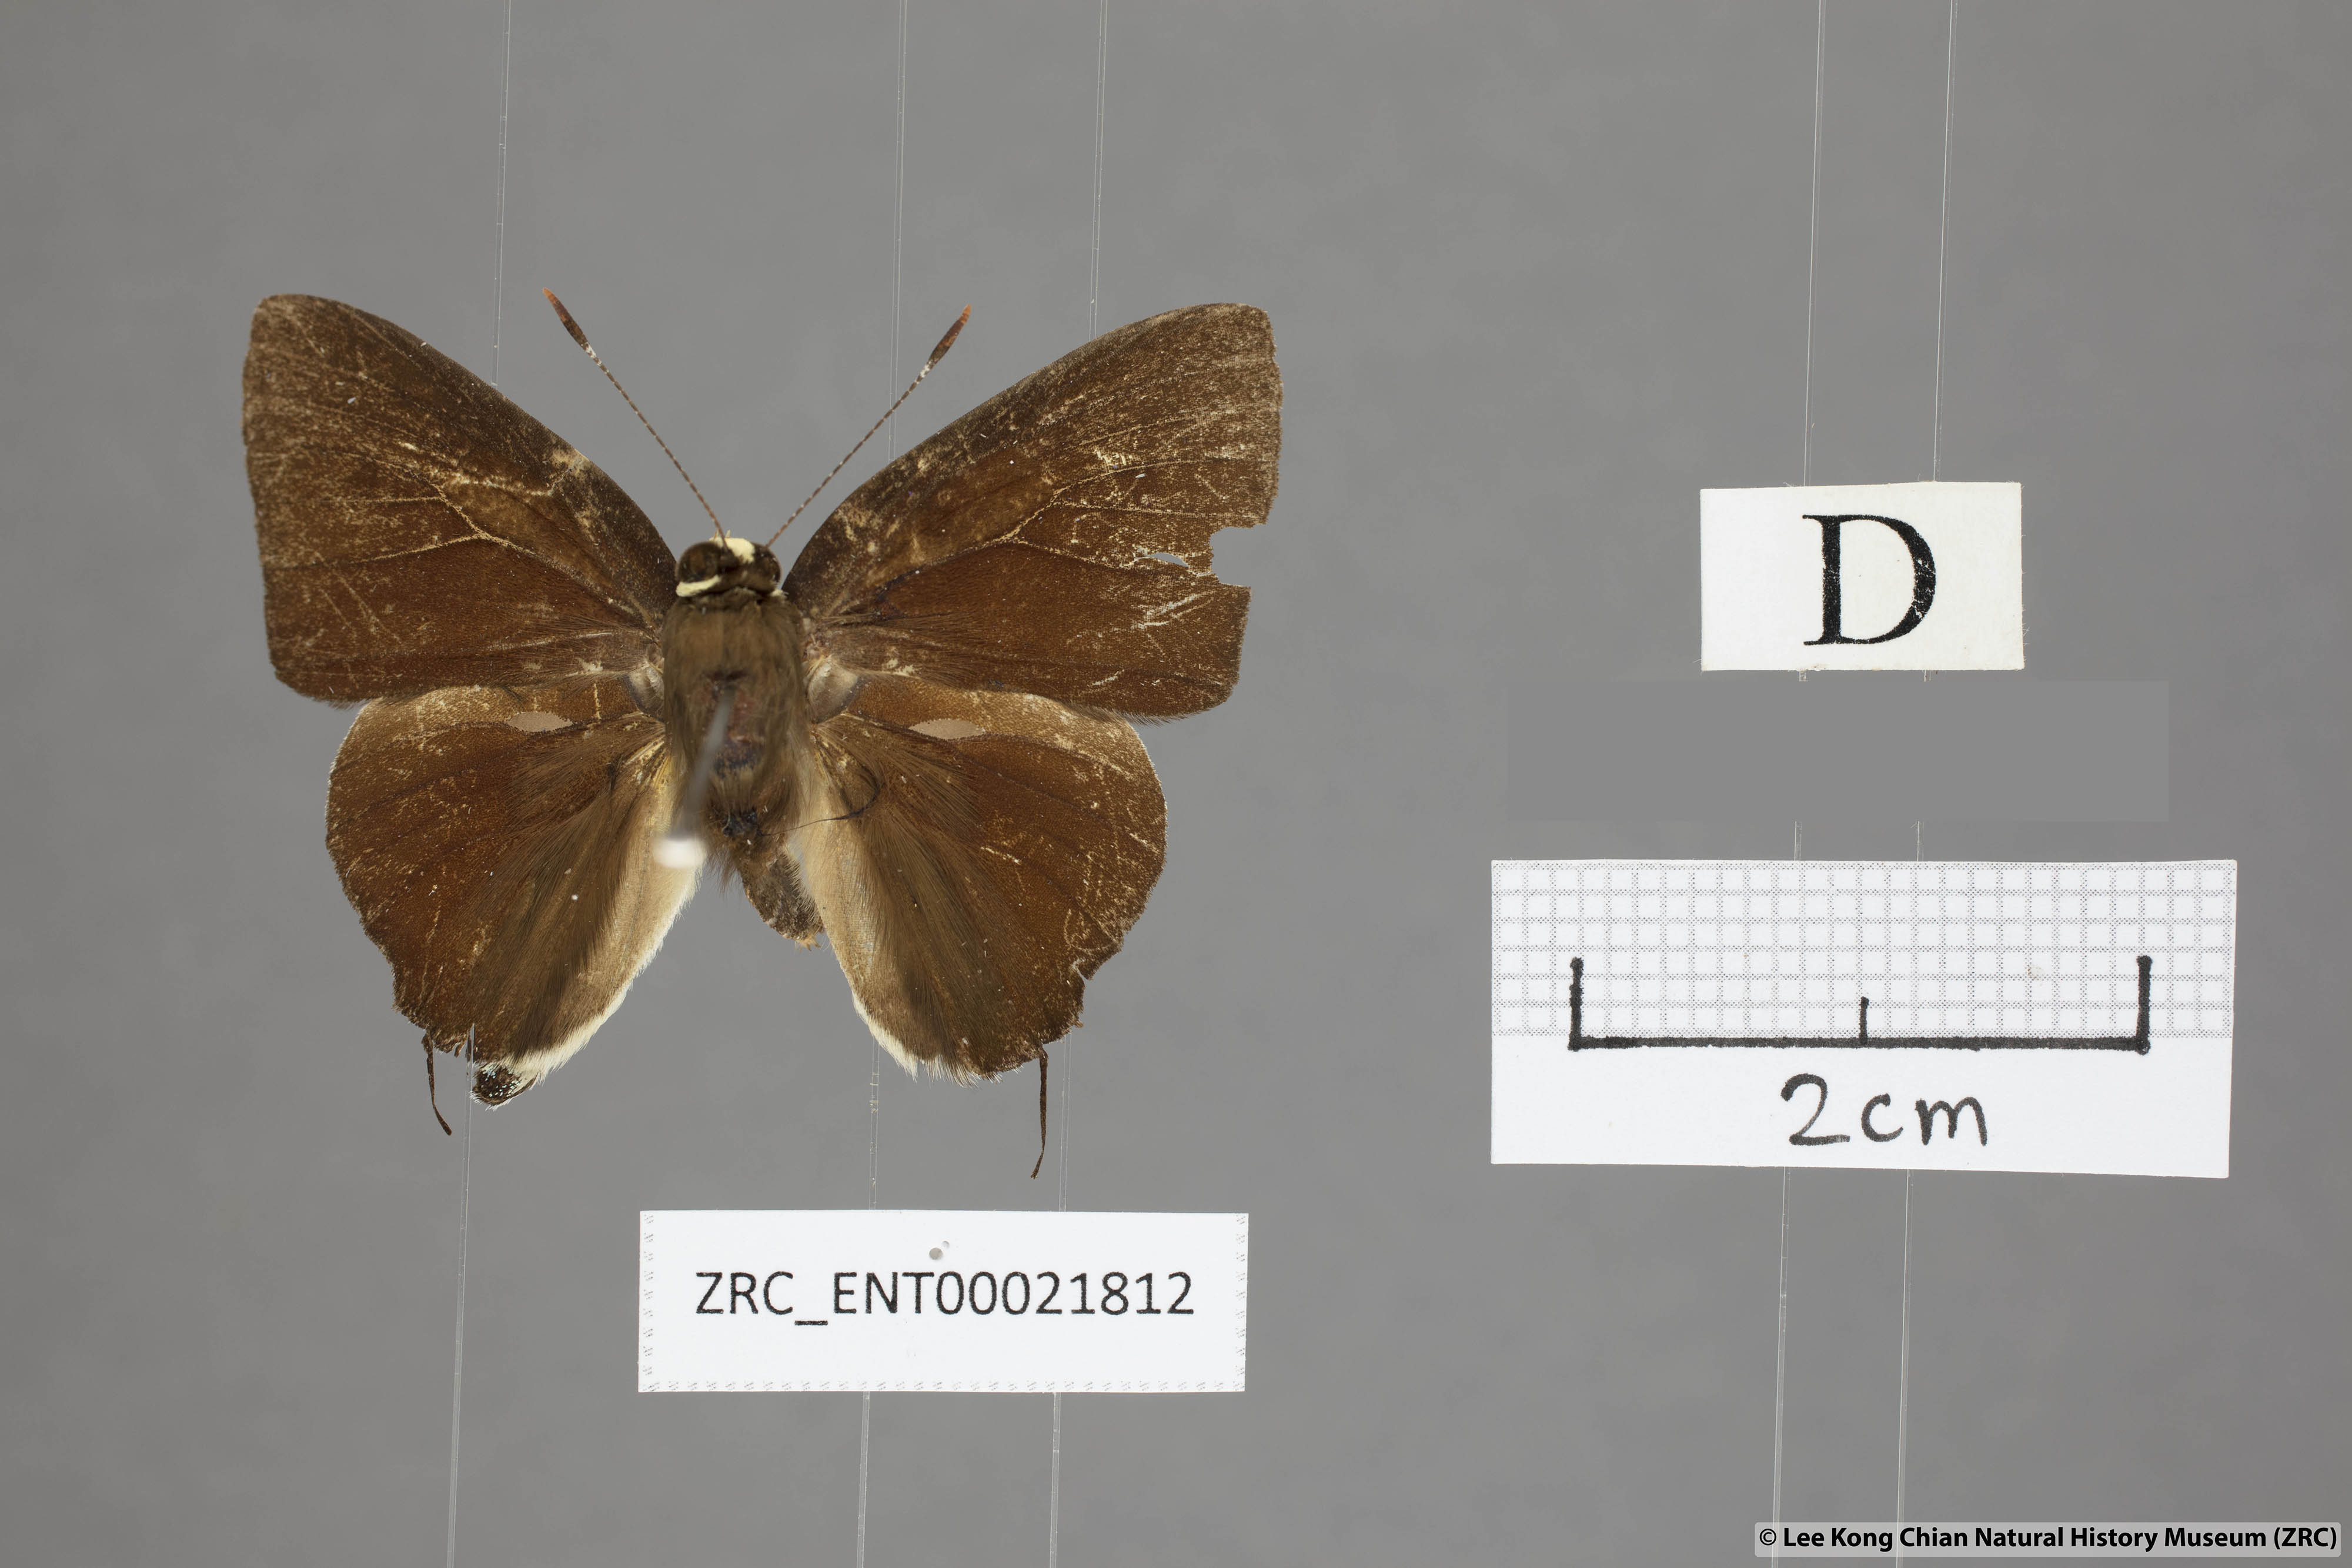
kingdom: Animalia
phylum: Arthropoda
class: Insecta
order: Lepidoptera
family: Lycaenidae
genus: Rapala
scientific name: Rapala domitia
